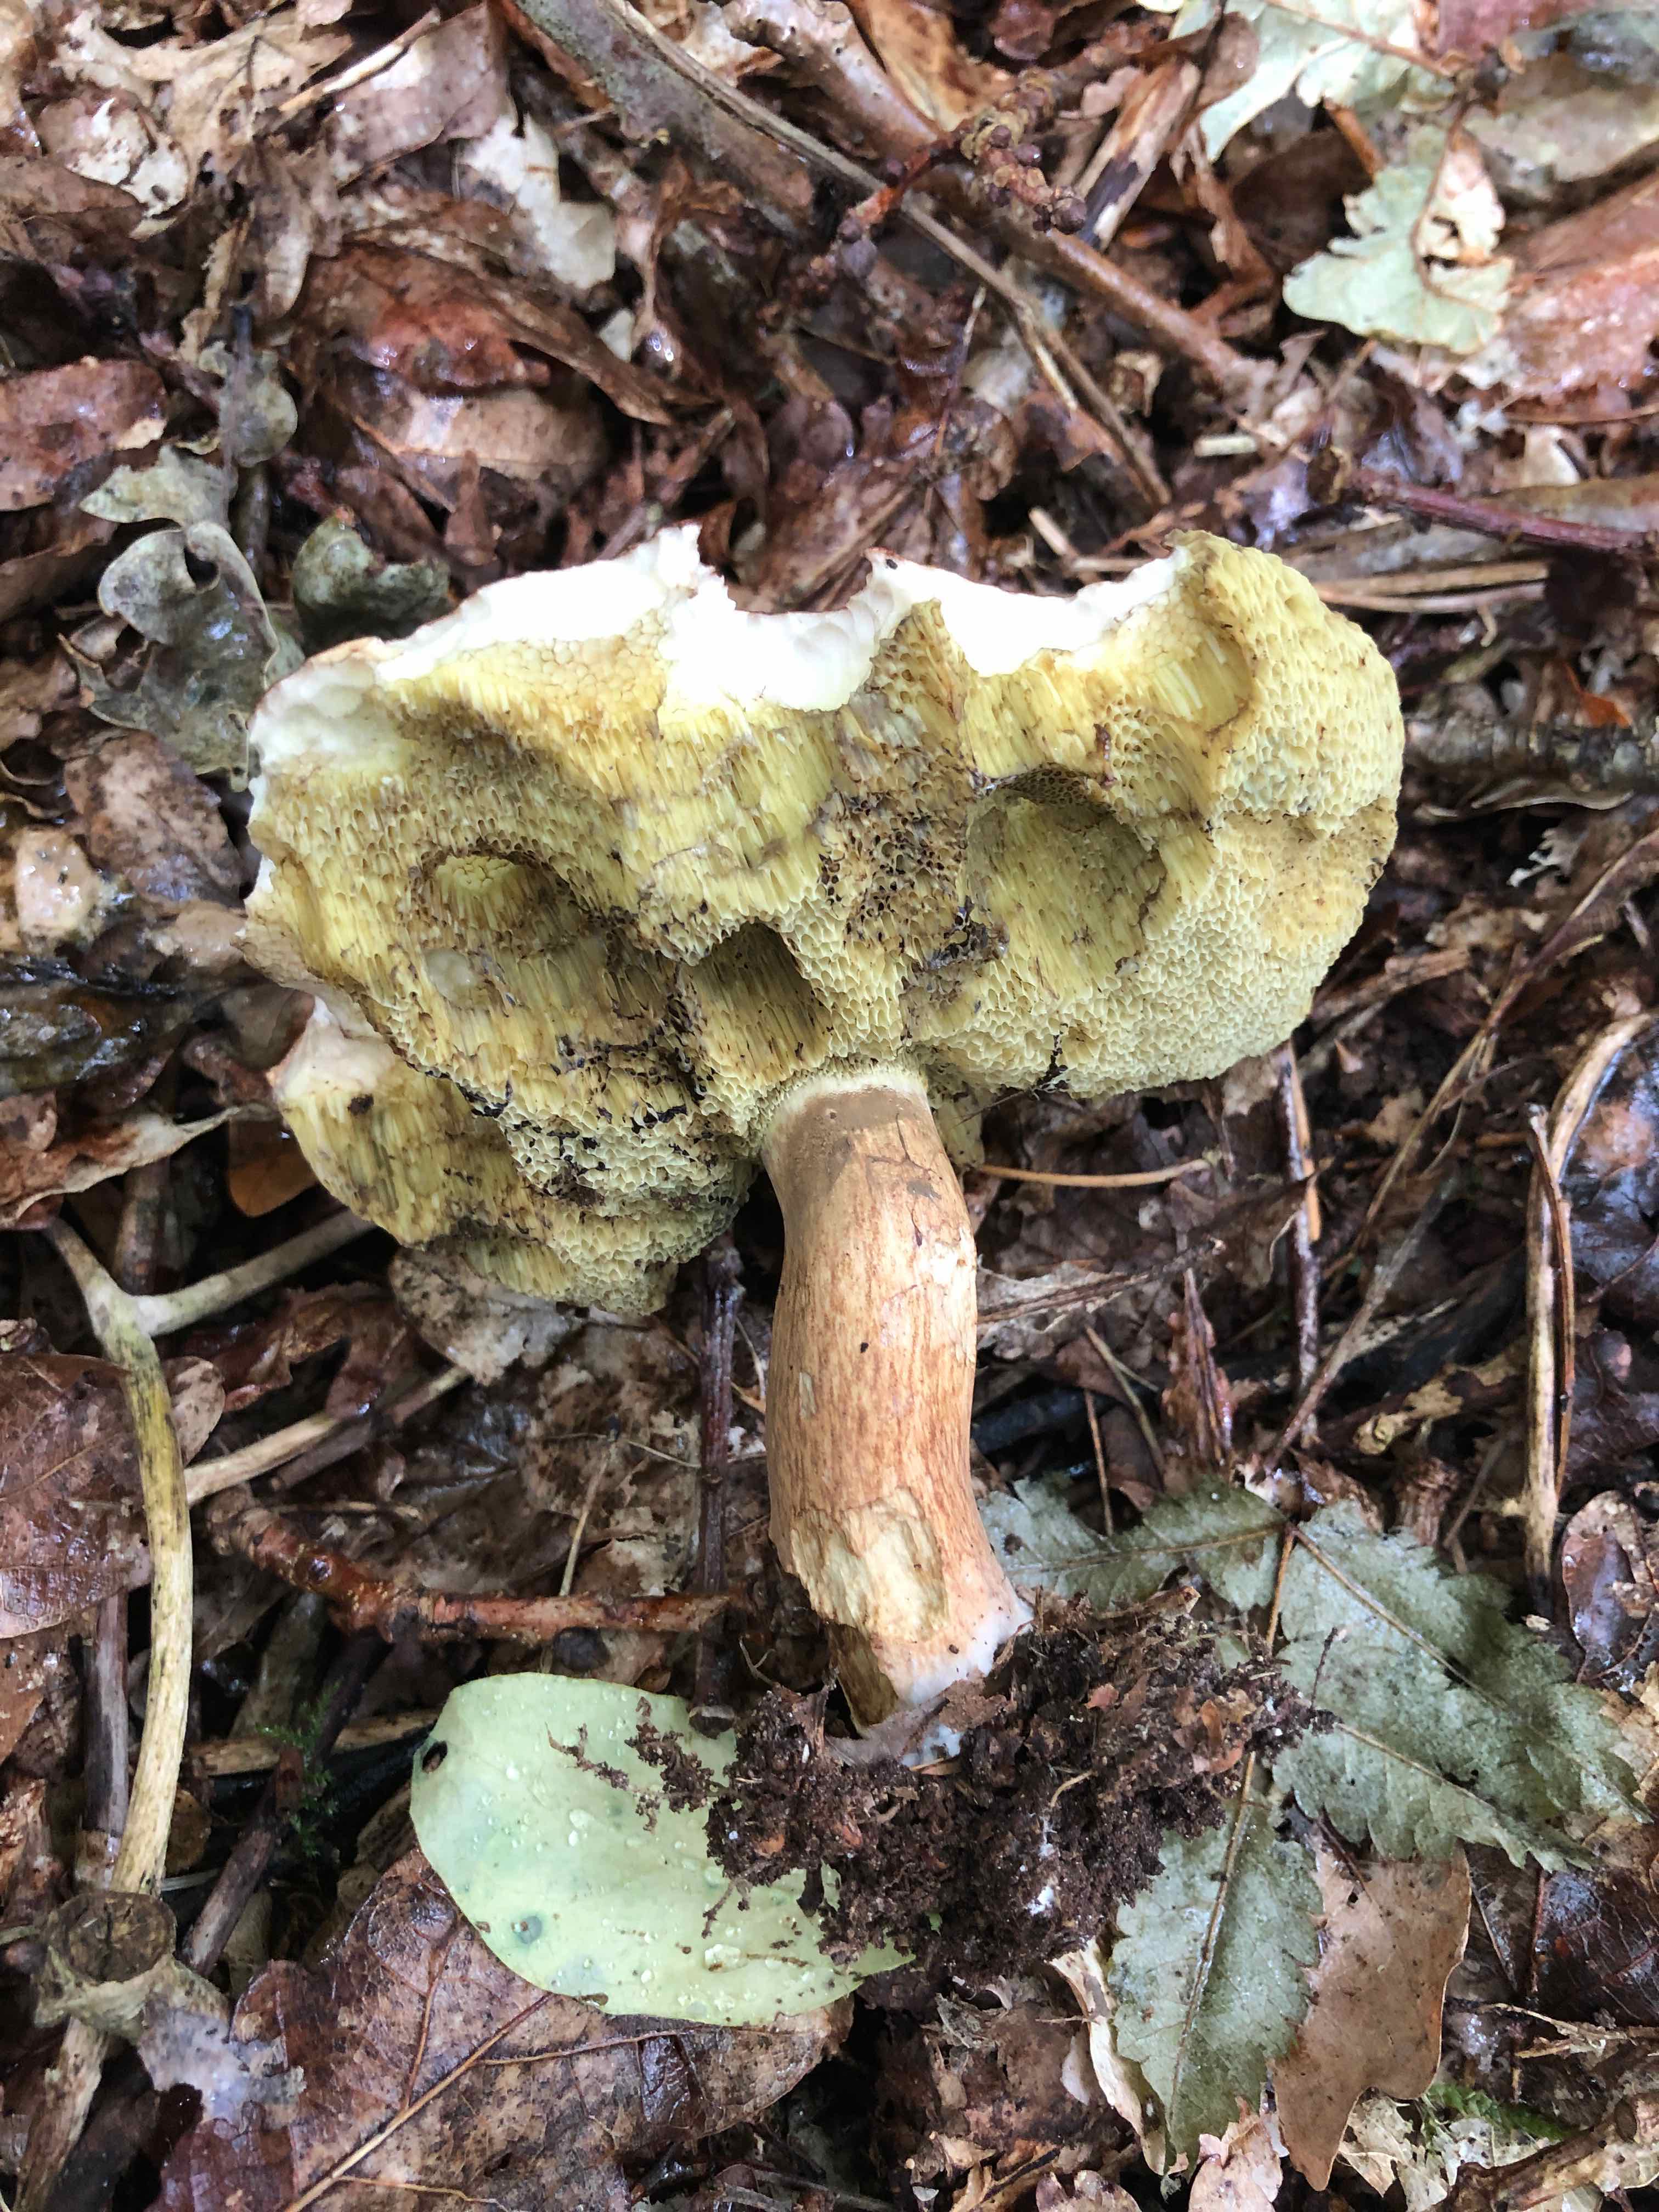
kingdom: Fungi
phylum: Basidiomycota
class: Agaricomycetes
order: Boletales
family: Boletaceae
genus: Imleria
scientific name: Imleria badia
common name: brunstokket rørhat
